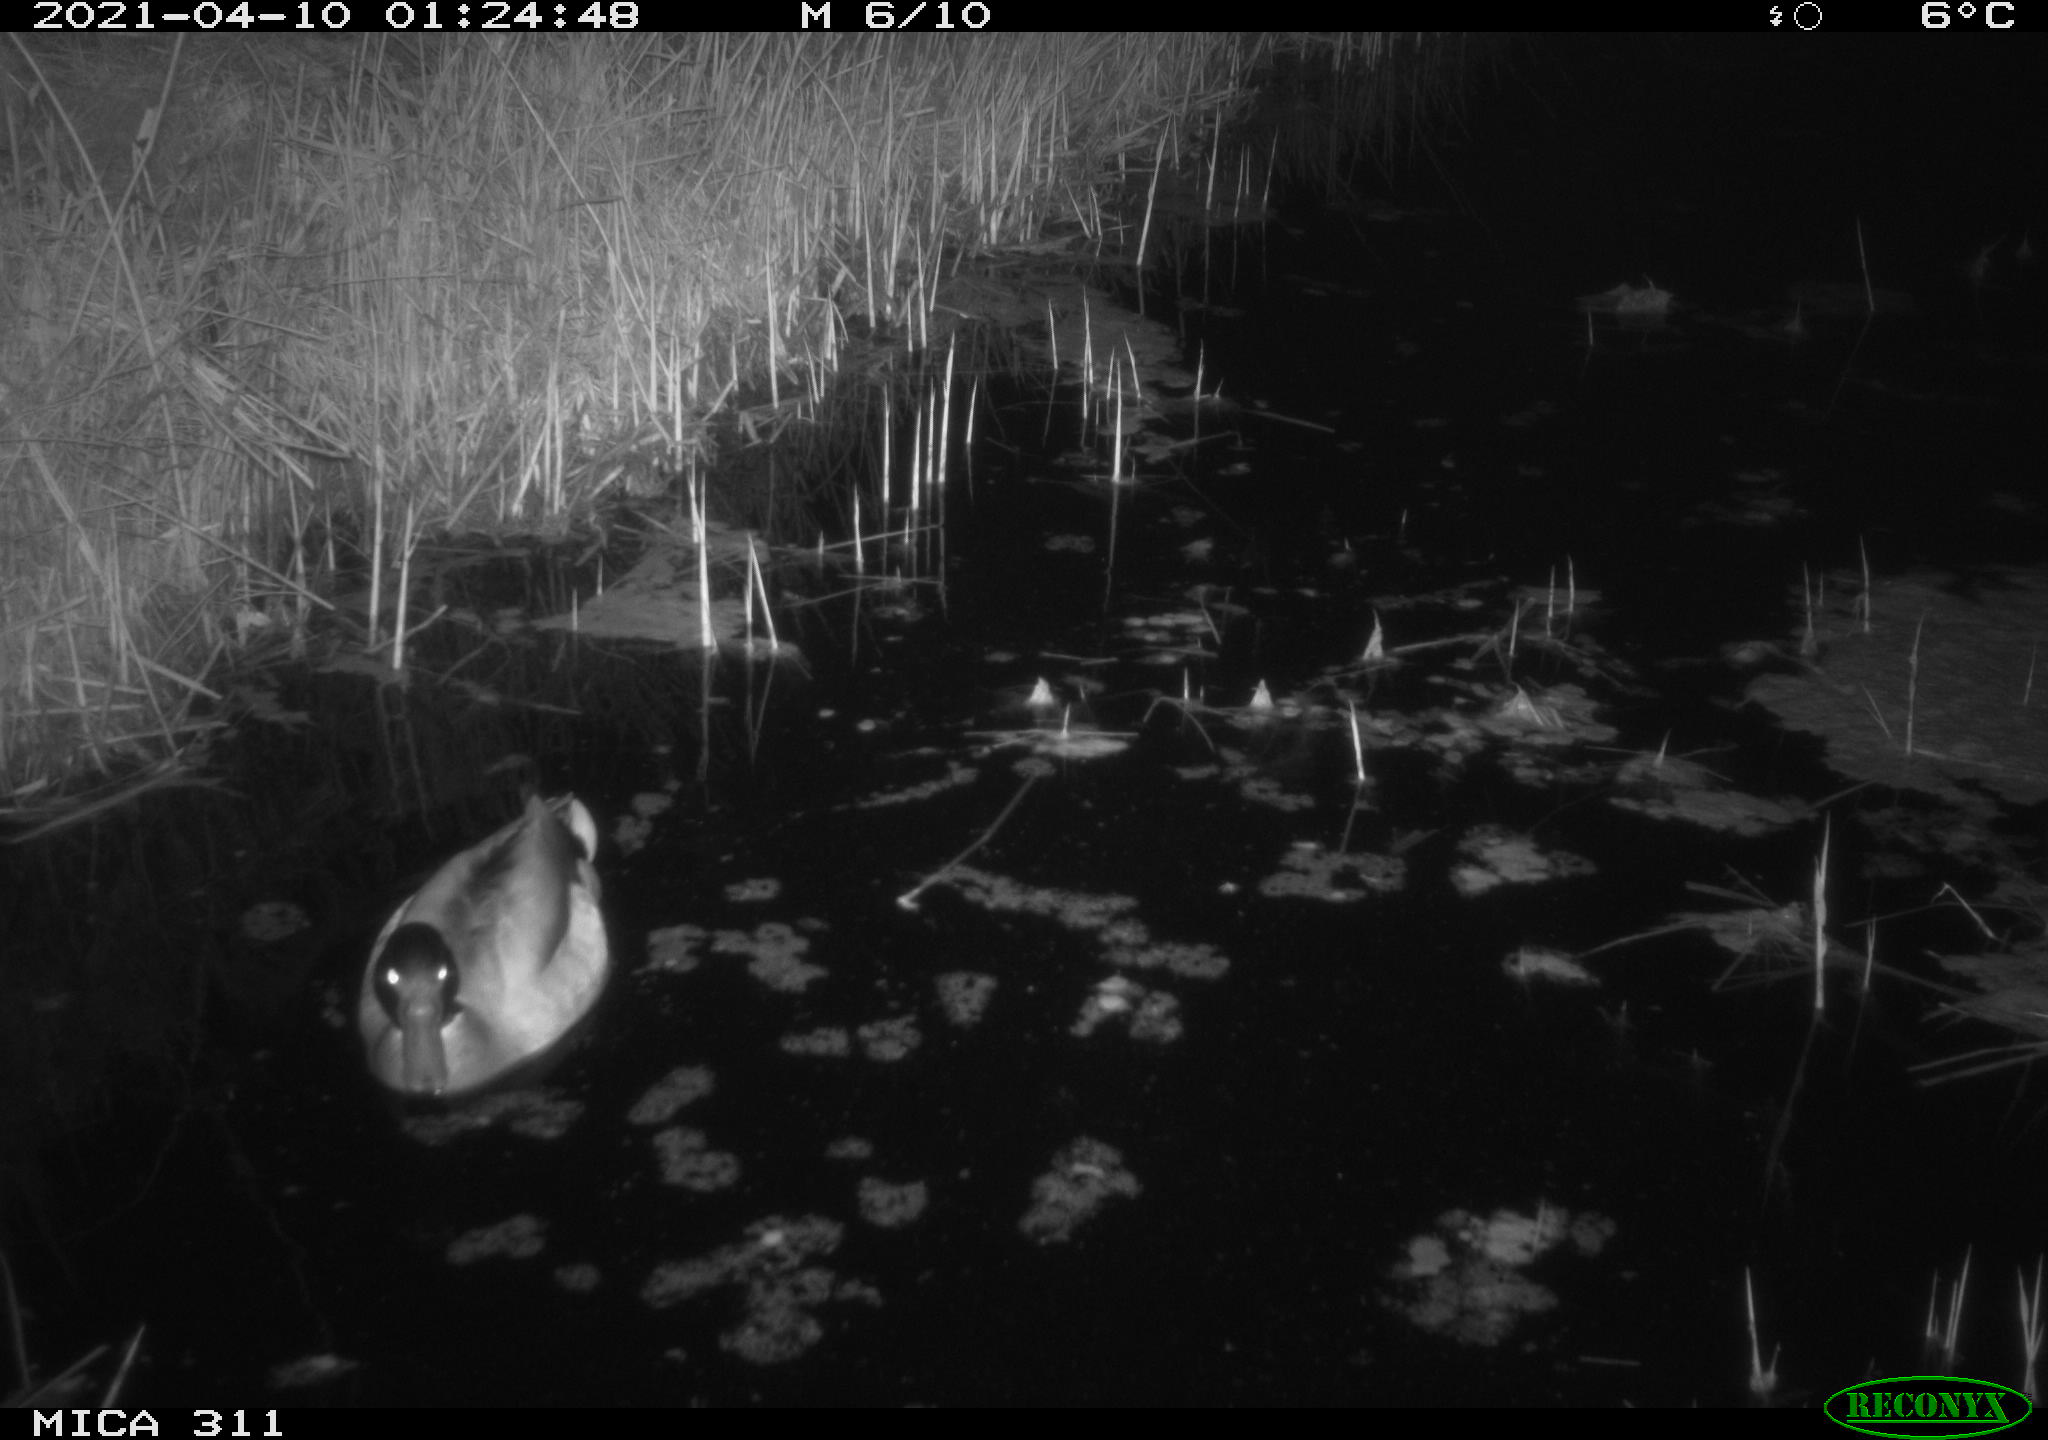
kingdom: Animalia
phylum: Chordata
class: Aves
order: Anseriformes
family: Anatidae
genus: Anas
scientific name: Anas platyrhynchos
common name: Mallard
